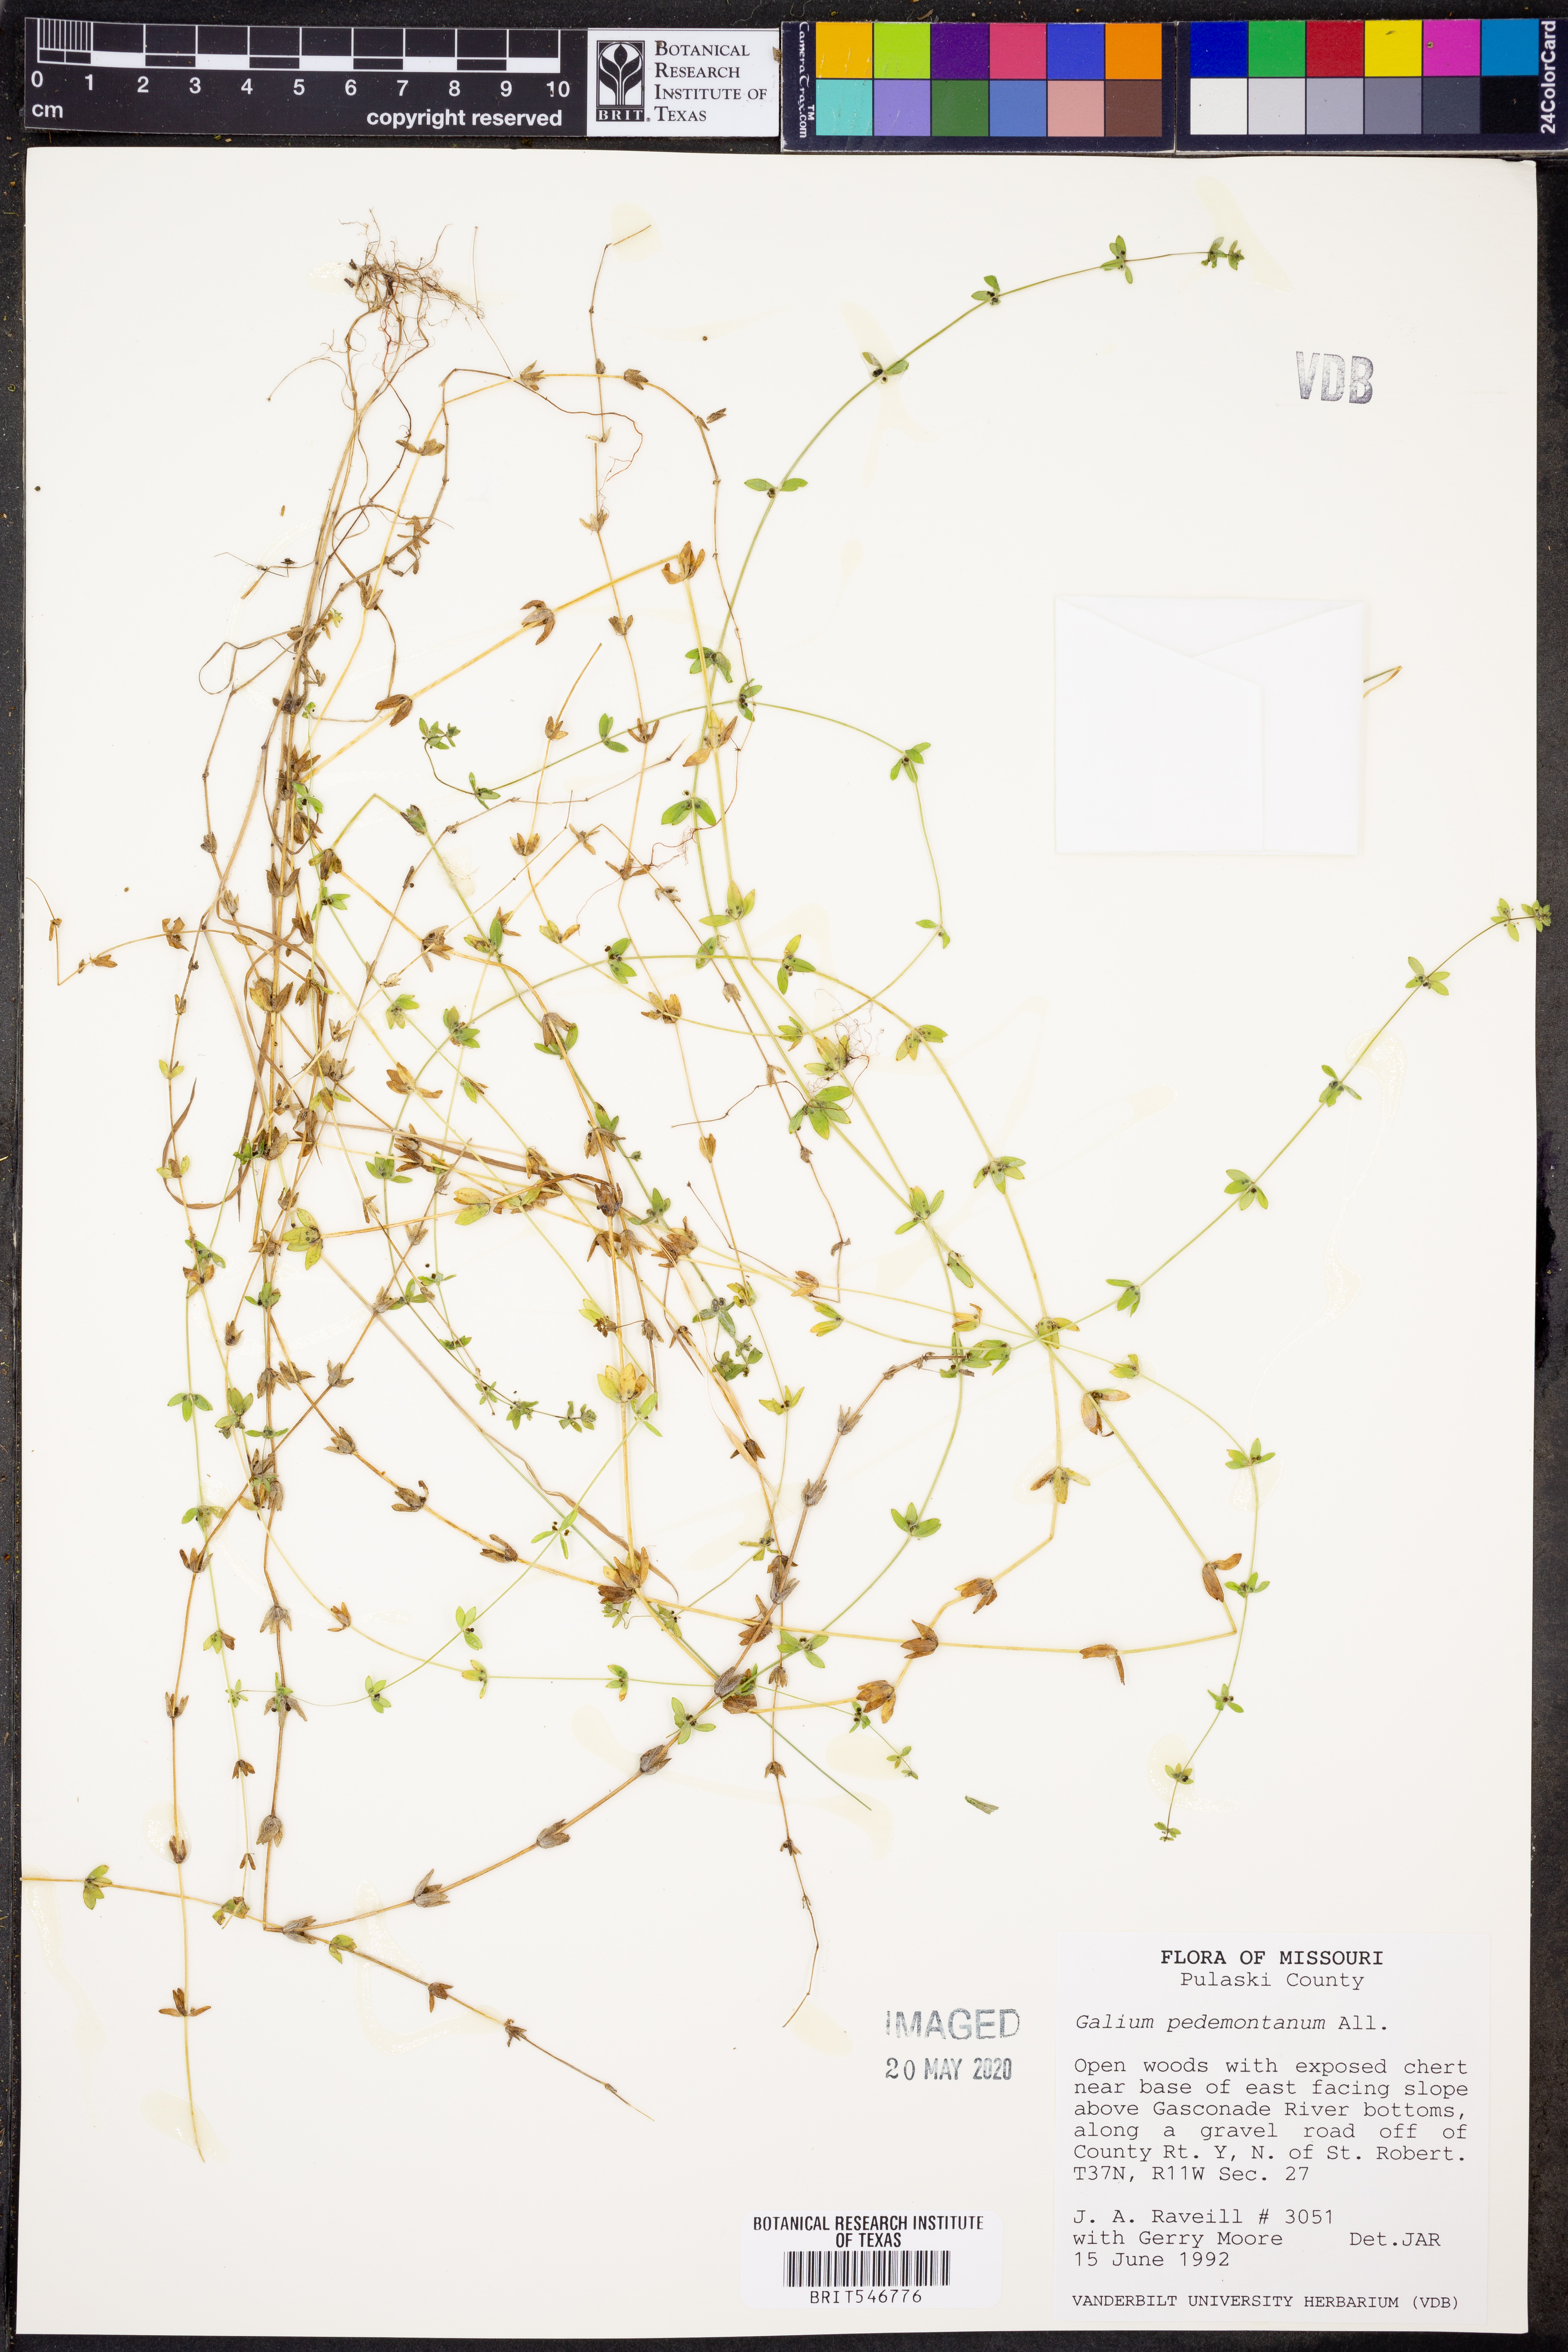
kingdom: Plantae
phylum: Tracheophyta
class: Magnoliopsida
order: Gentianales
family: Rubiaceae
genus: Cruciata
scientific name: Cruciata pedemontana
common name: Piedmont bedstraw
